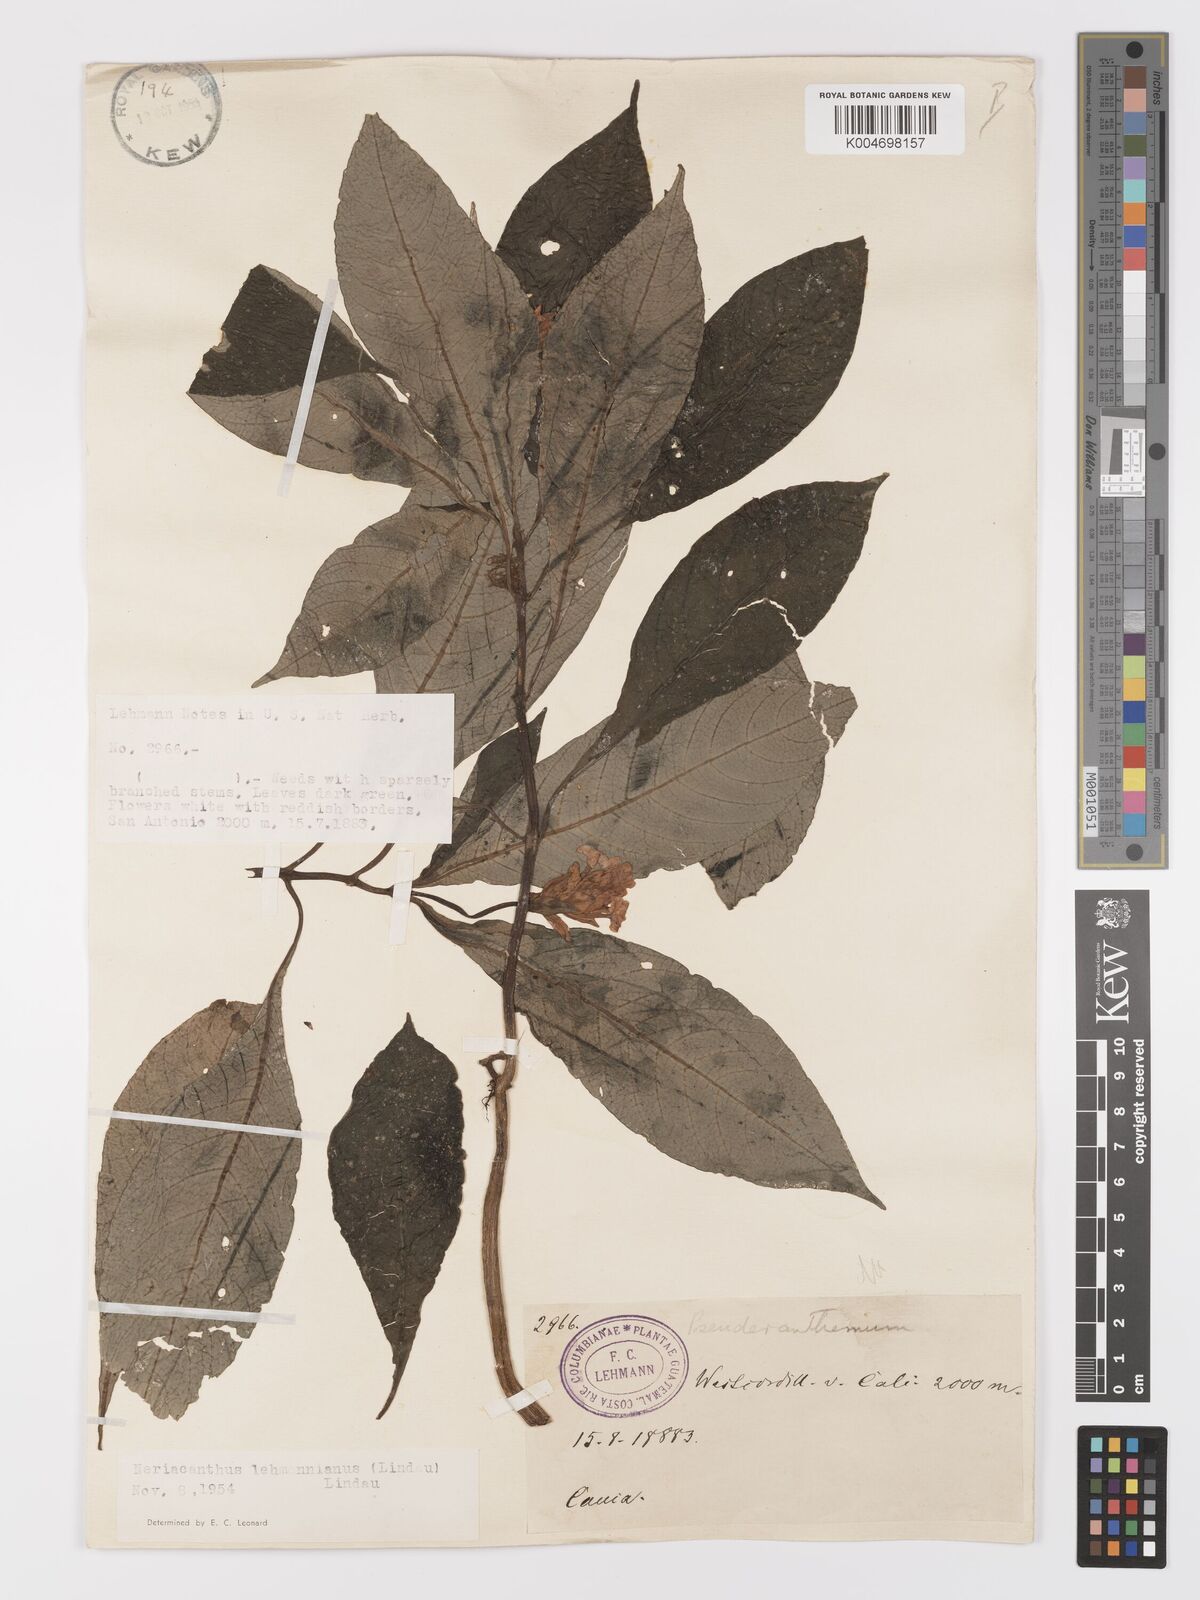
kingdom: Plantae
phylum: Tracheophyta
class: Magnoliopsida
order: Lamiales
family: Acanthaceae
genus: Neriacanthus
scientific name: Neriacanthus lehmannianus
